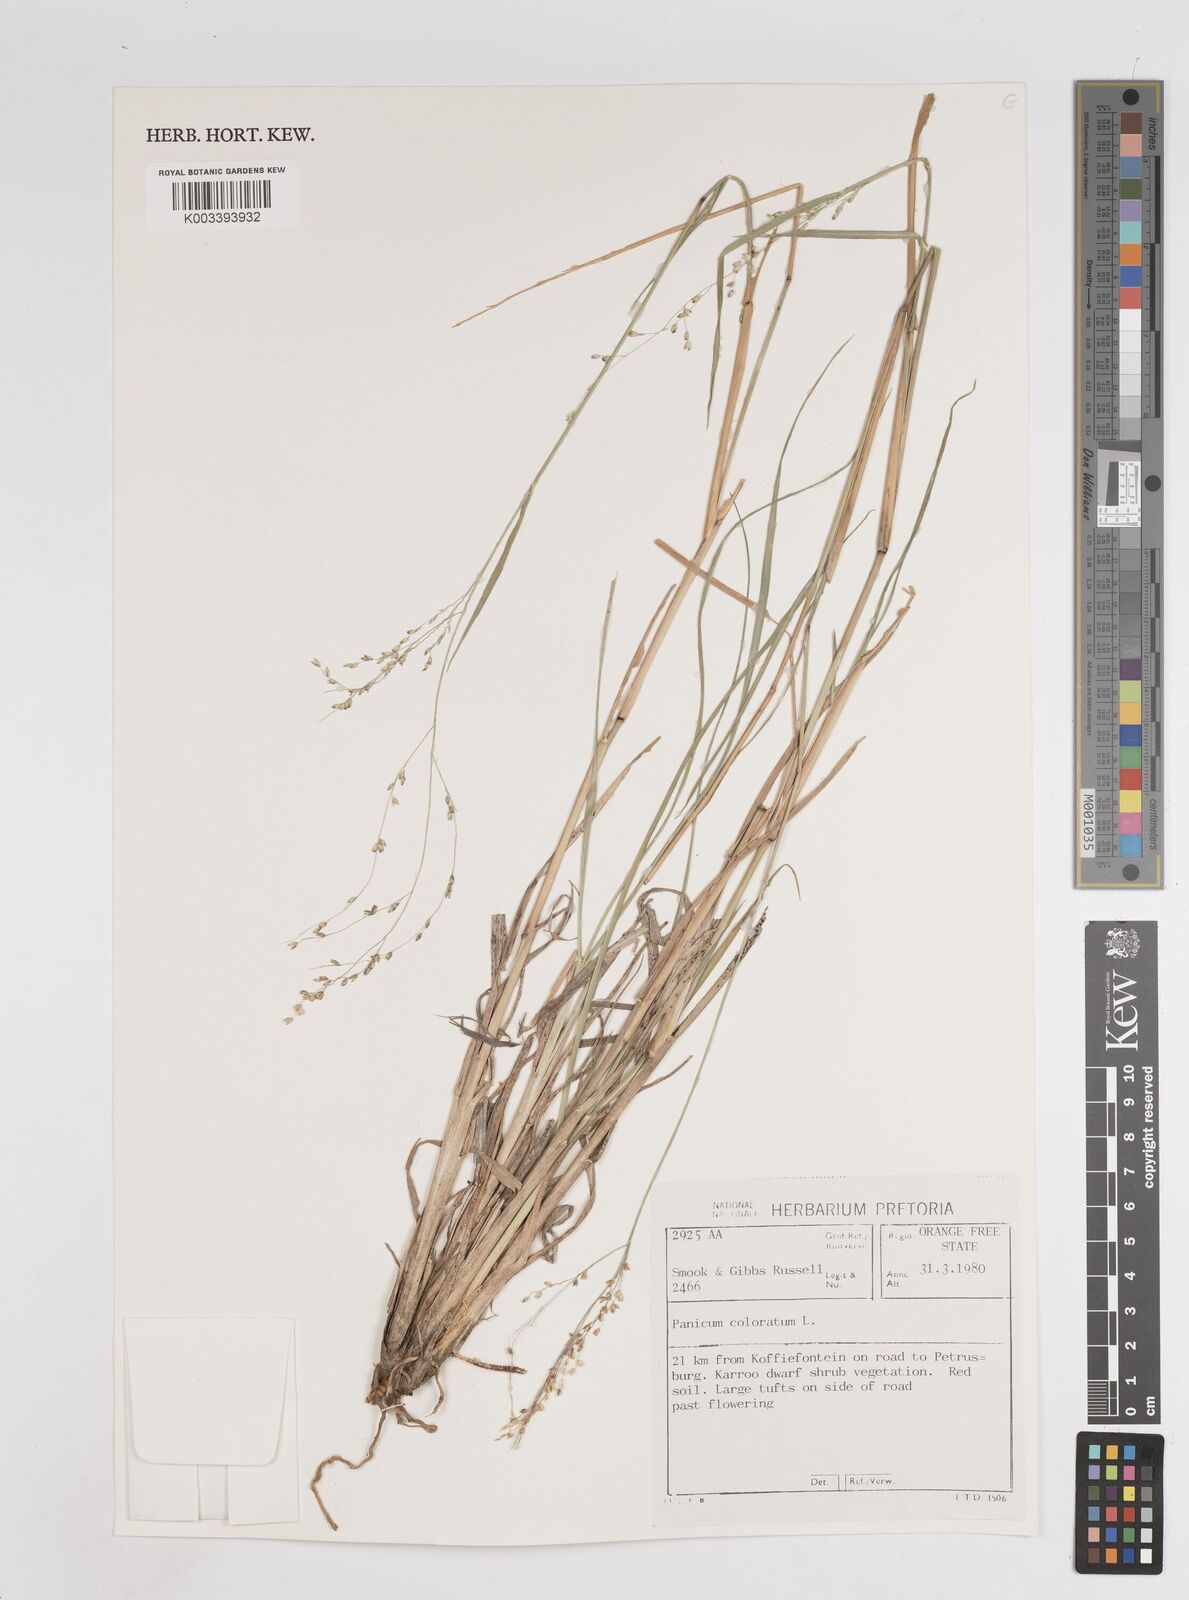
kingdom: Plantae
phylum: Tracheophyta
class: Liliopsida
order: Poales
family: Poaceae
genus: Panicum
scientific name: Panicum coloratum
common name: Kleingrass
